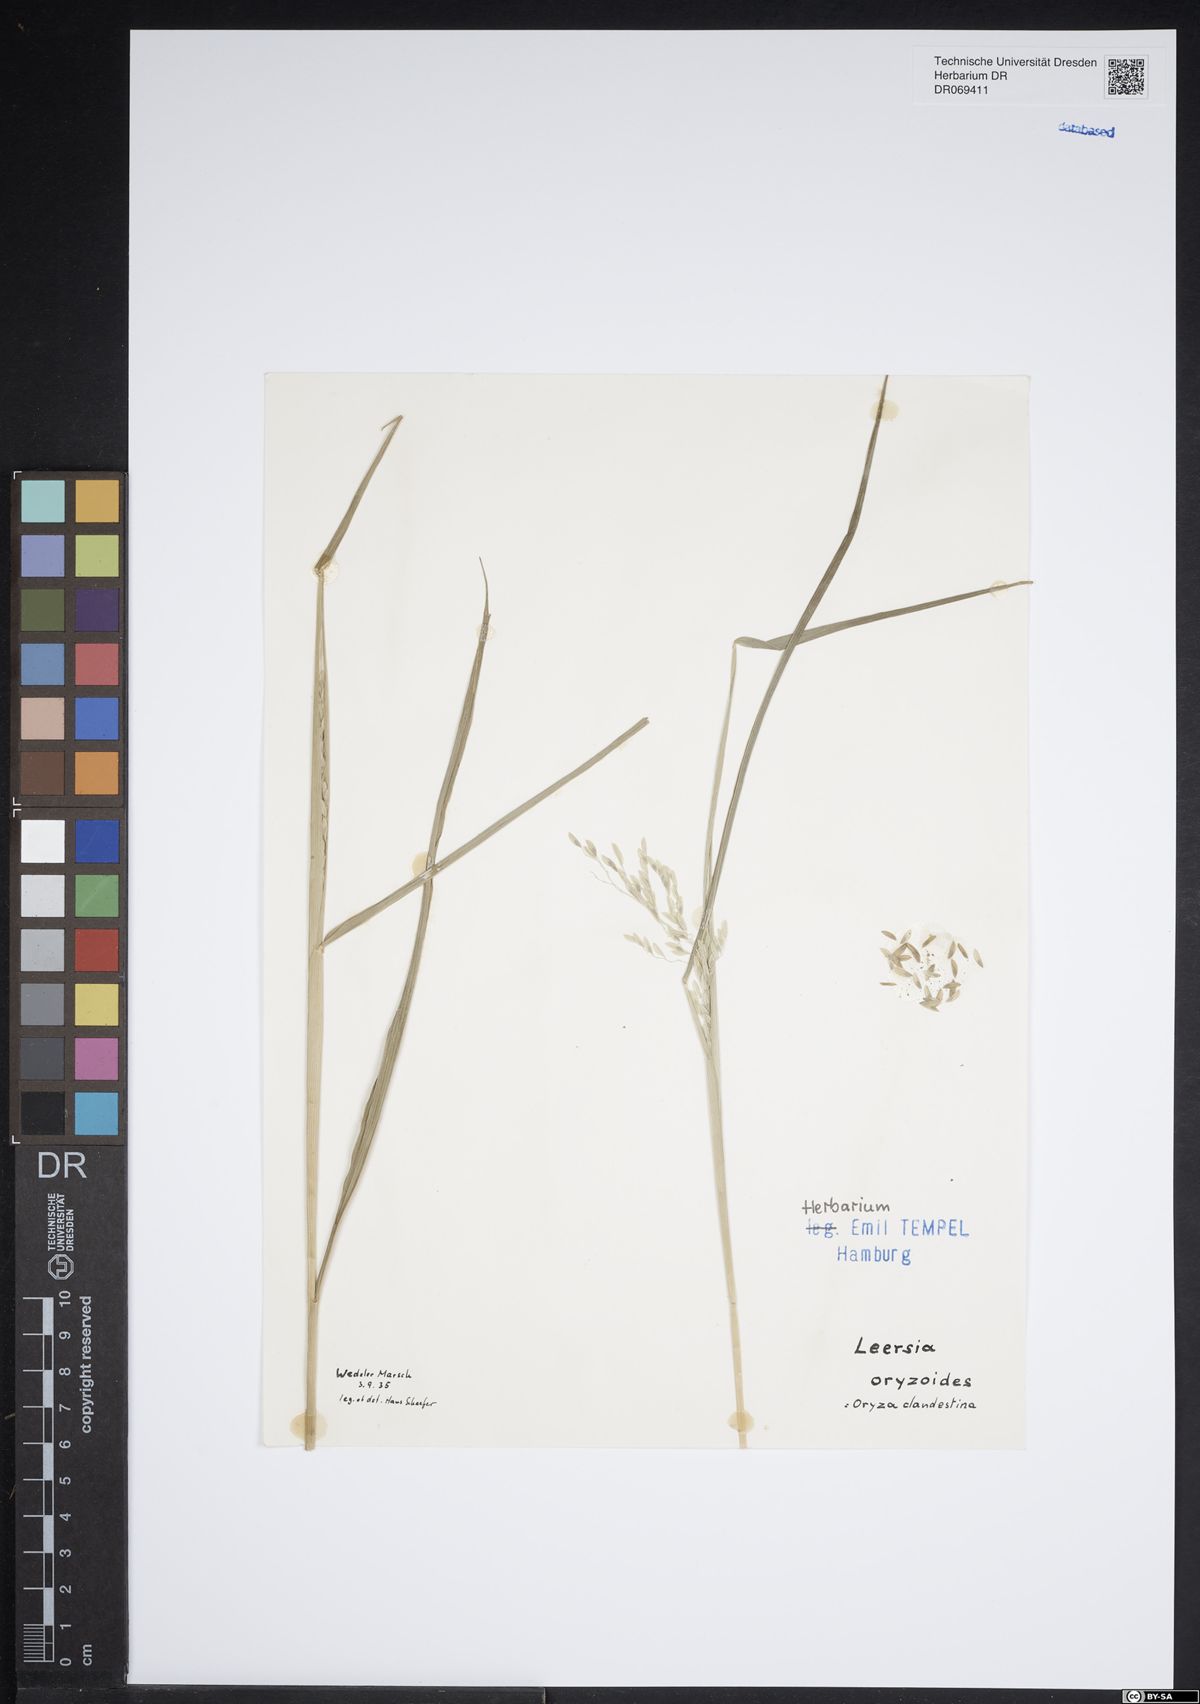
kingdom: Plantae
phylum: Tracheophyta
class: Liliopsida
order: Poales
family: Poaceae
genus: Leersia
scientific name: Leersia oryzoides
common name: Cut-grass
